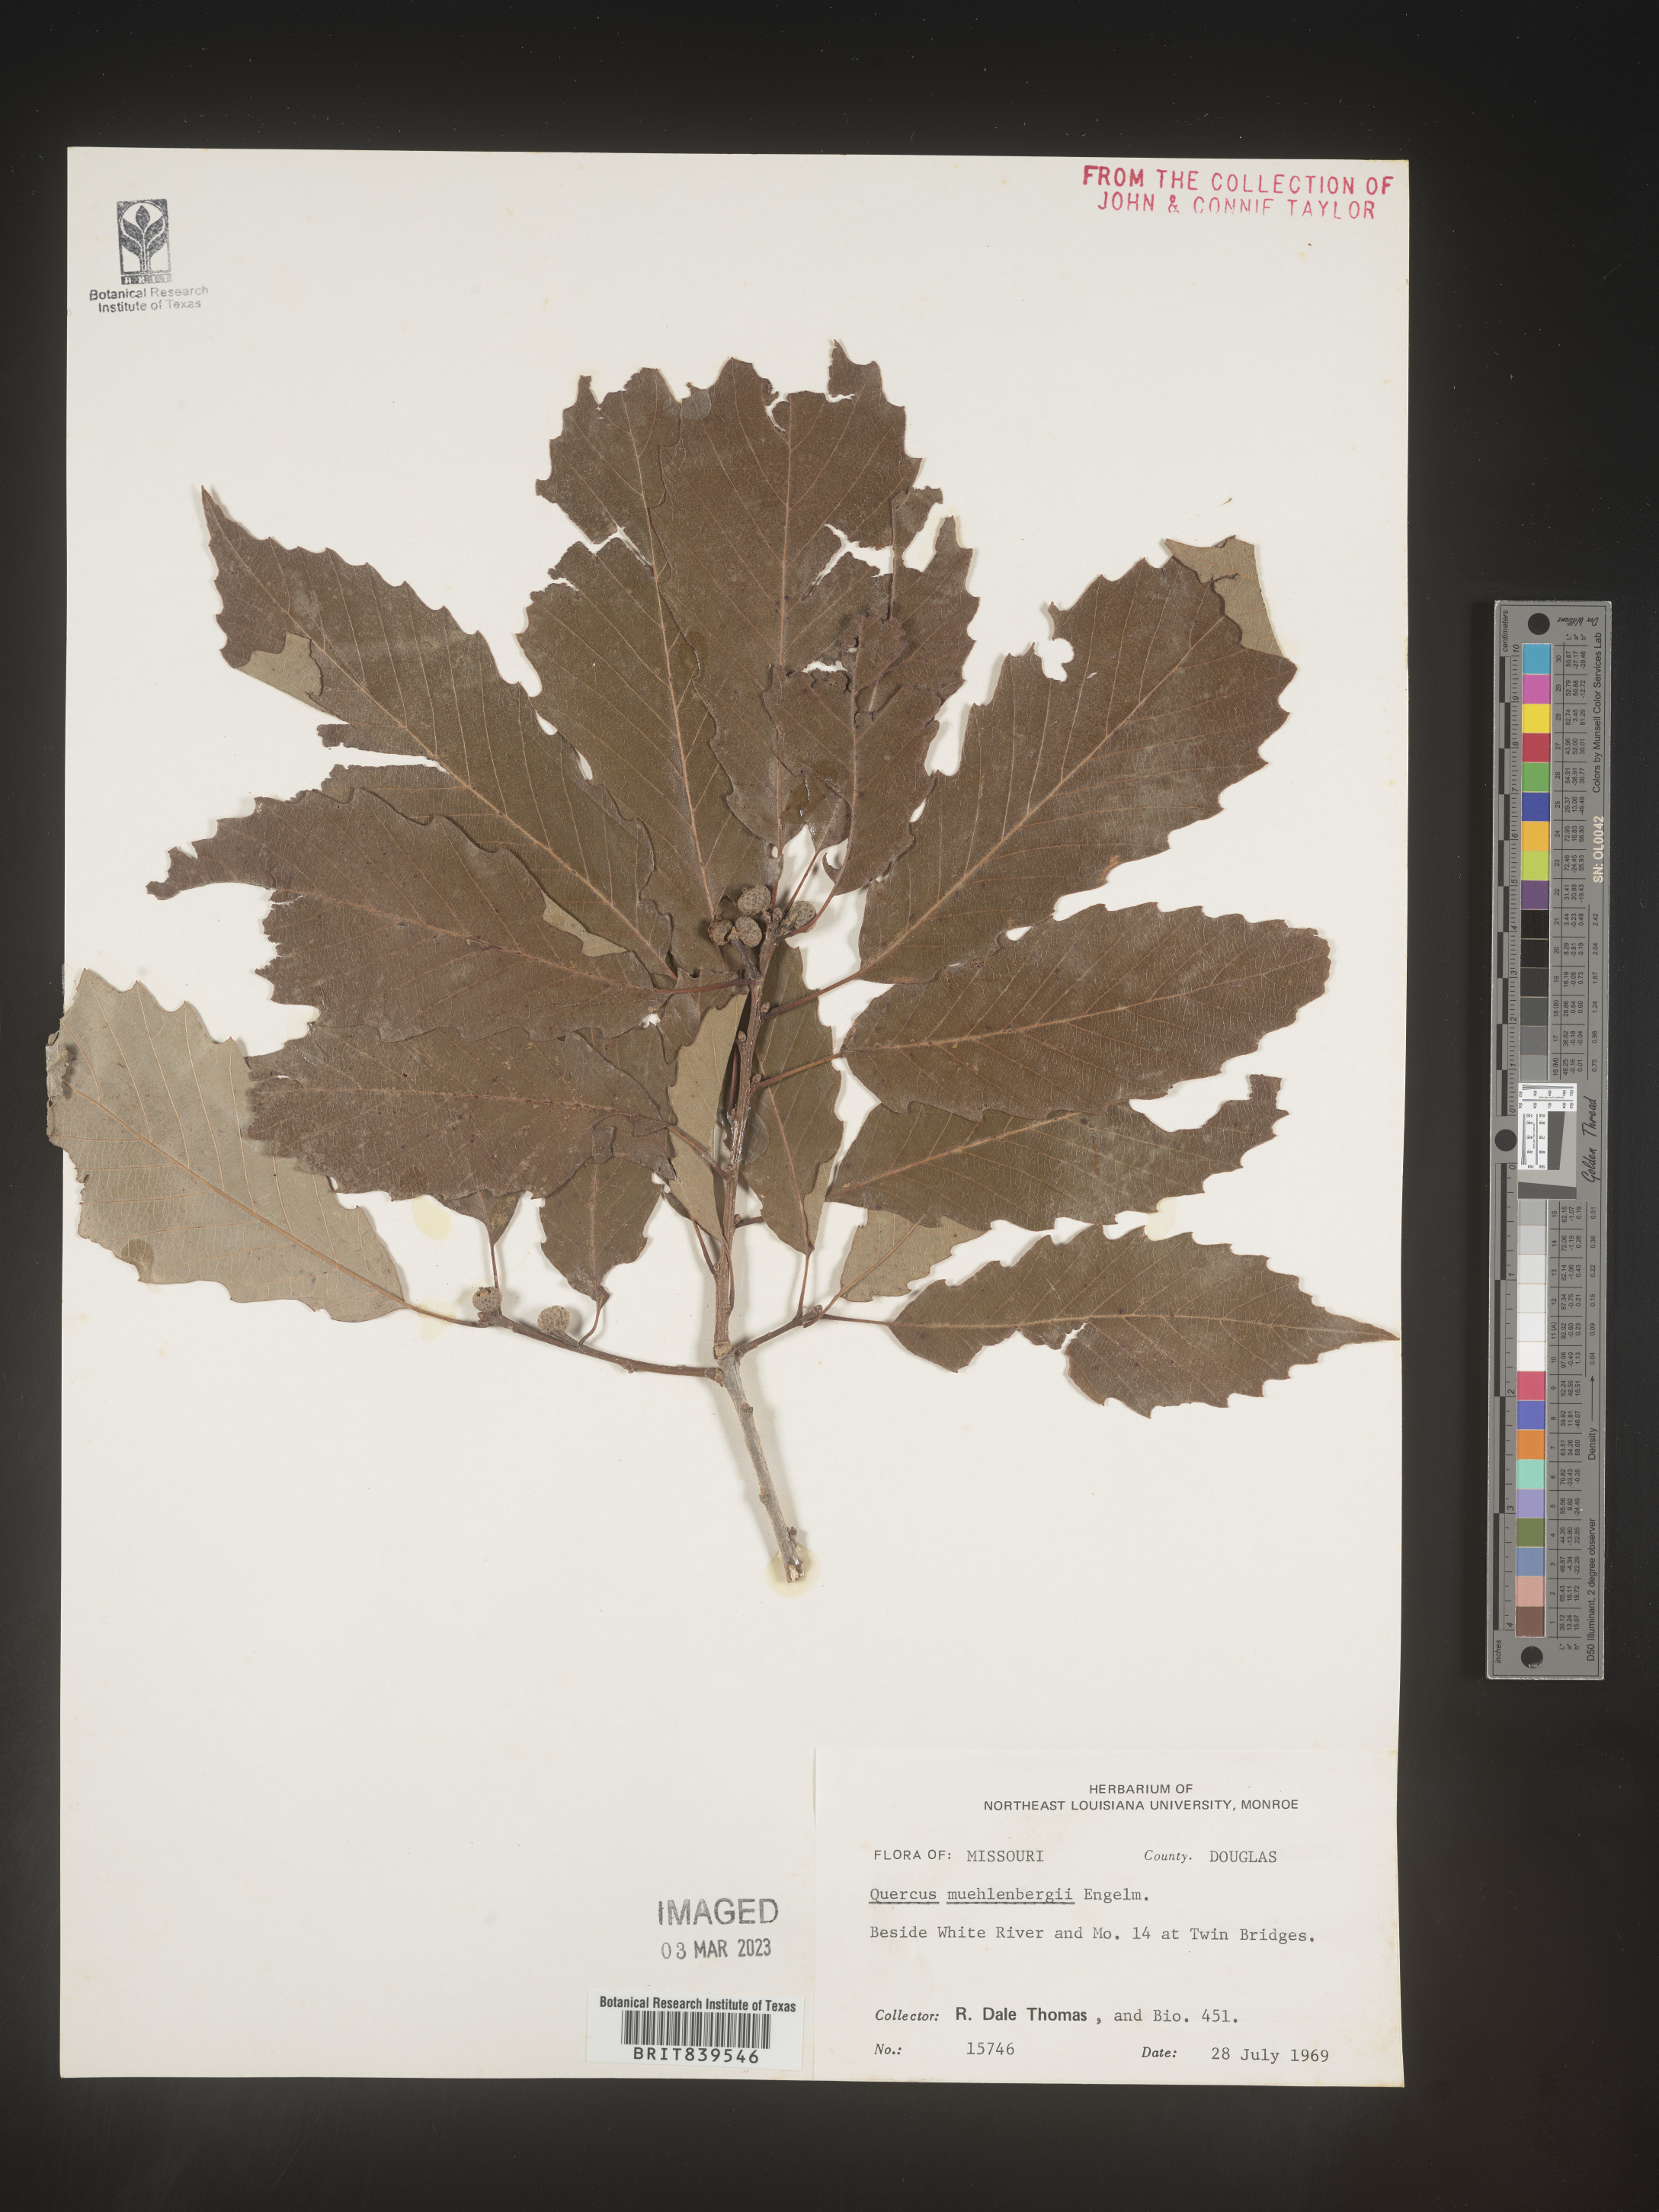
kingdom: Plantae
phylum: Tracheophyta
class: Magnoliopsida
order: Fagales
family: Fagaceae
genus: Quercus
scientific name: Quercus muehlenbergii
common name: Chinkapin oak
